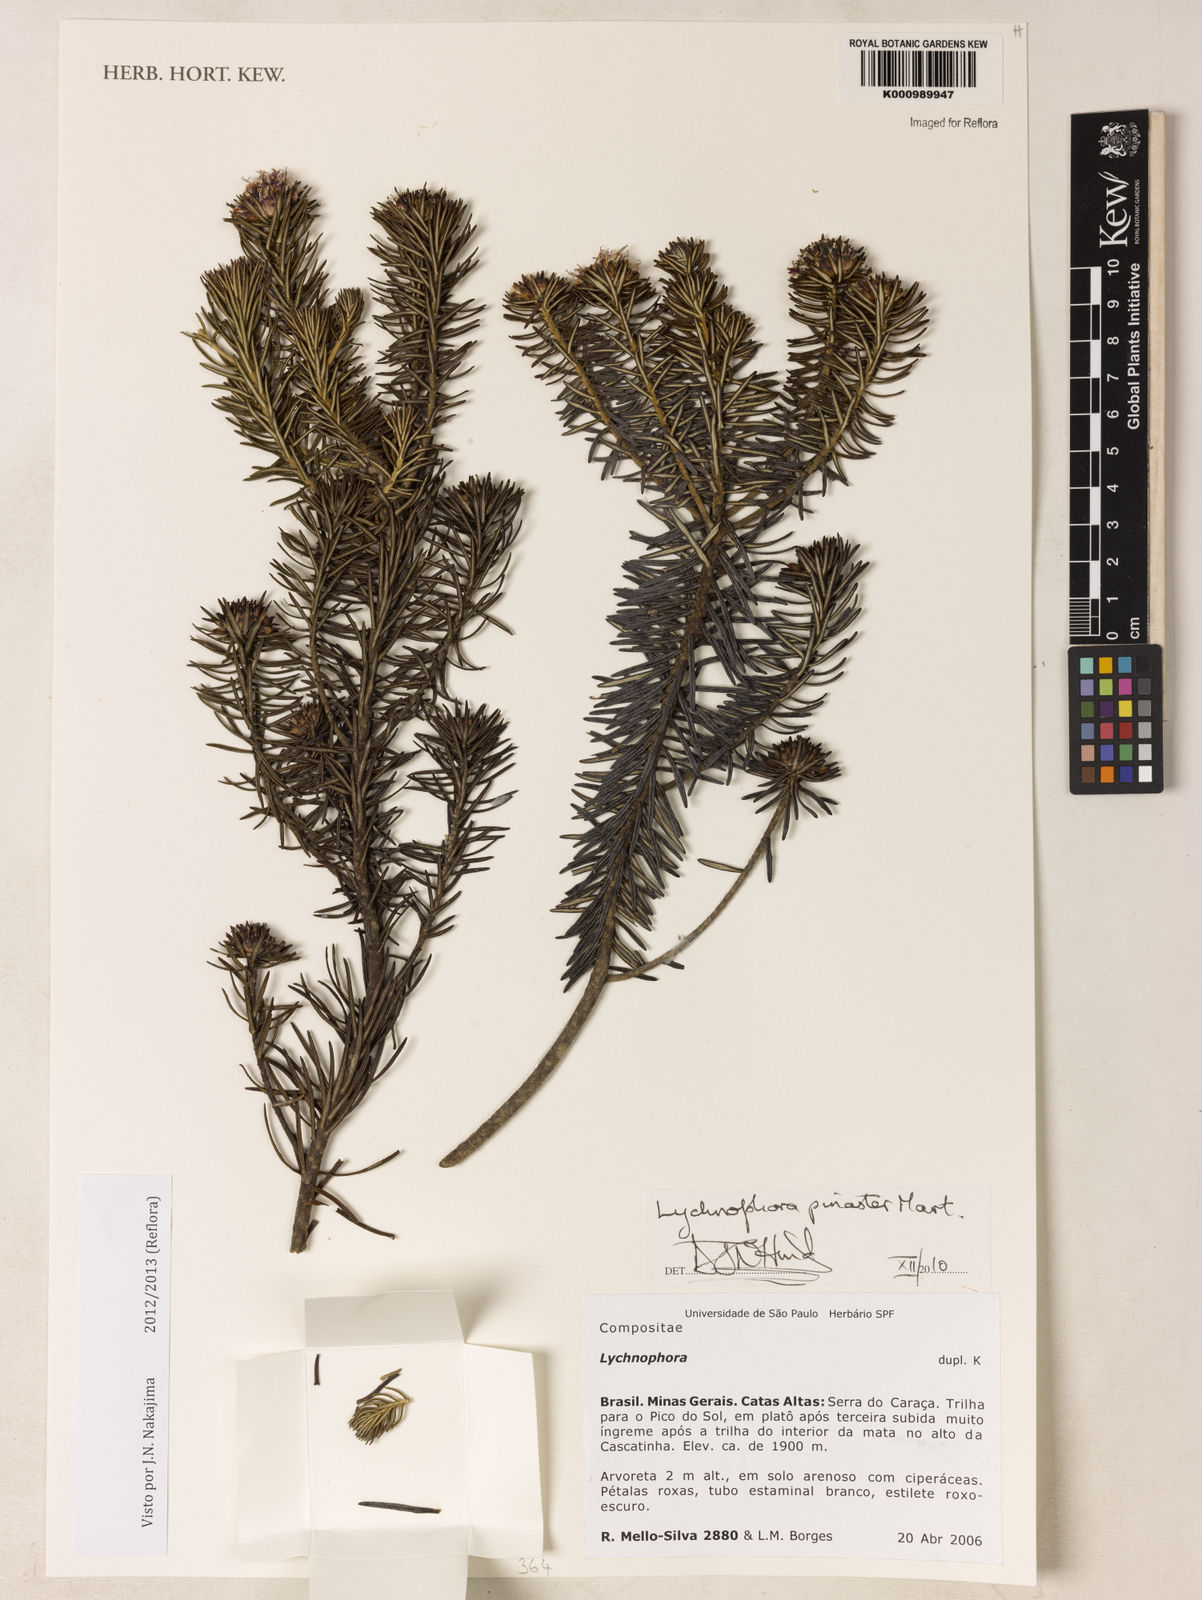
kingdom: Plantae
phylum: Tracheophyta
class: Magnoliopsida
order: Asterales
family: Asteraceae
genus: Lychnophora
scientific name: Lychnophora pinaster
